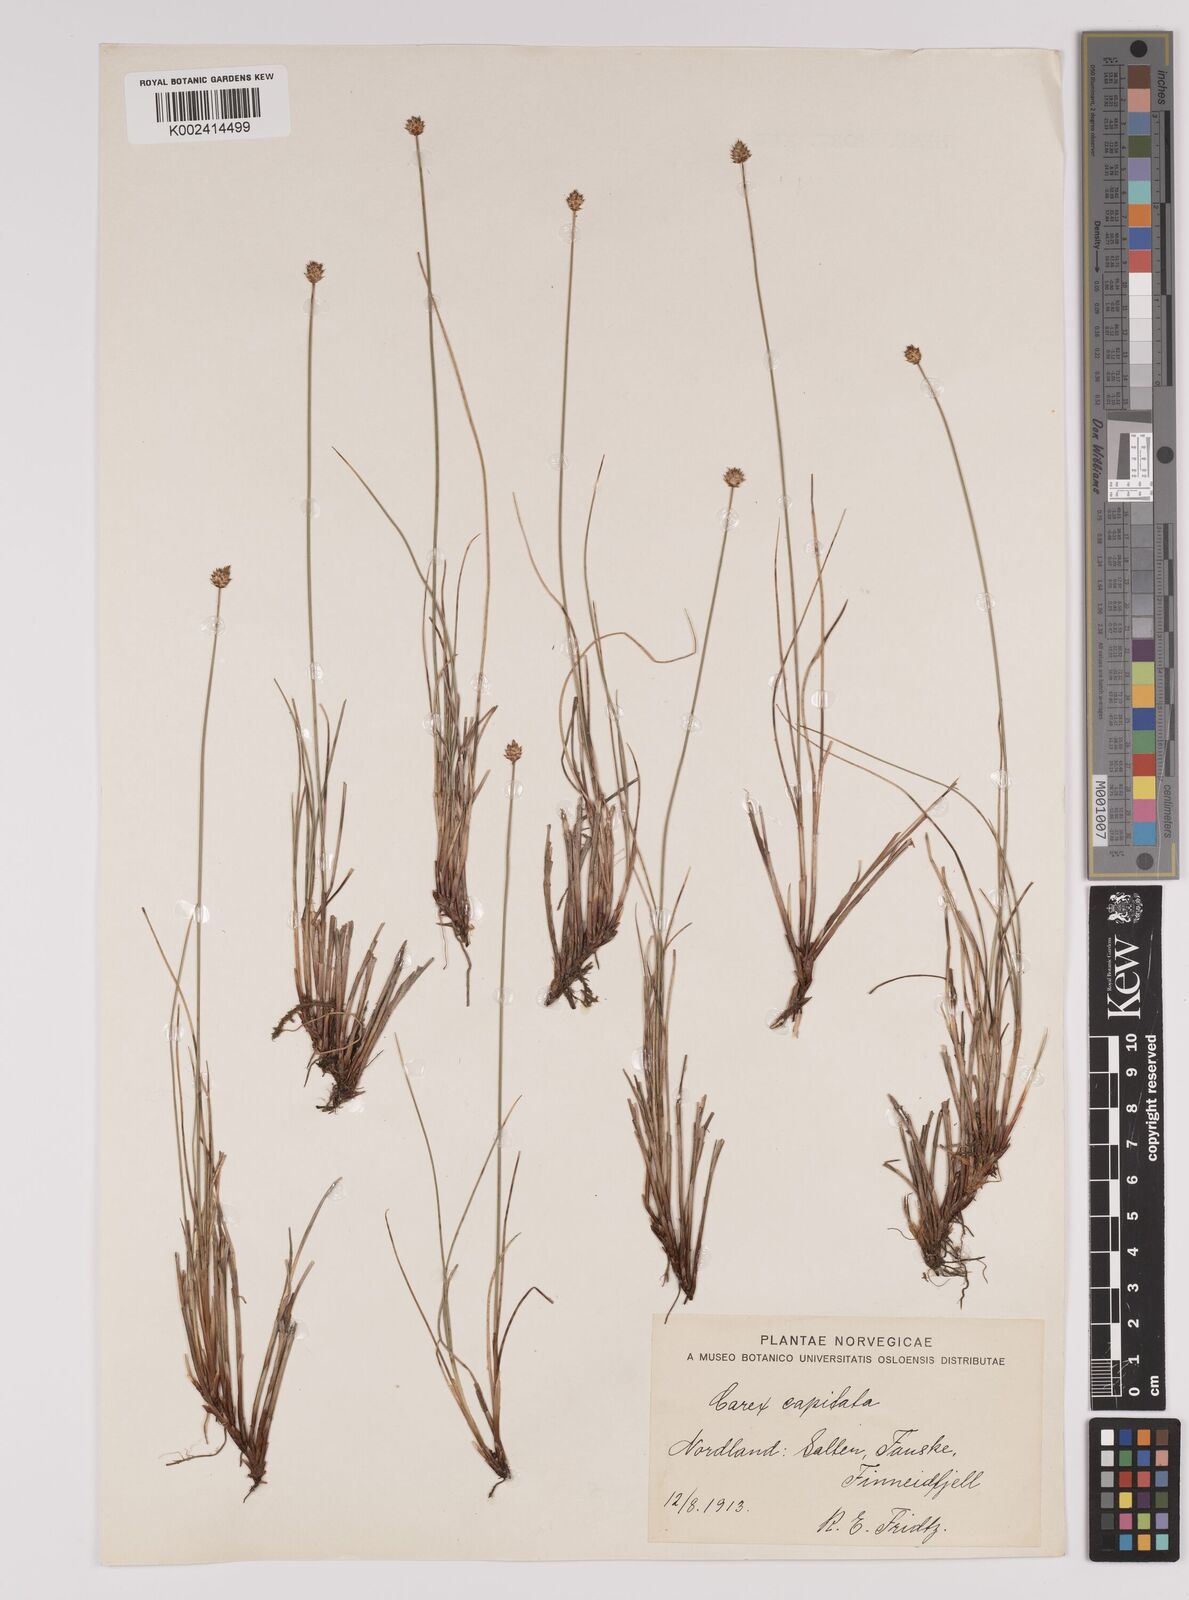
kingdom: Plantae
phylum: Tracheophyta
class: Liliopsida
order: Poales
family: Cyperaceae
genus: Carex
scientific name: Carex capitata
